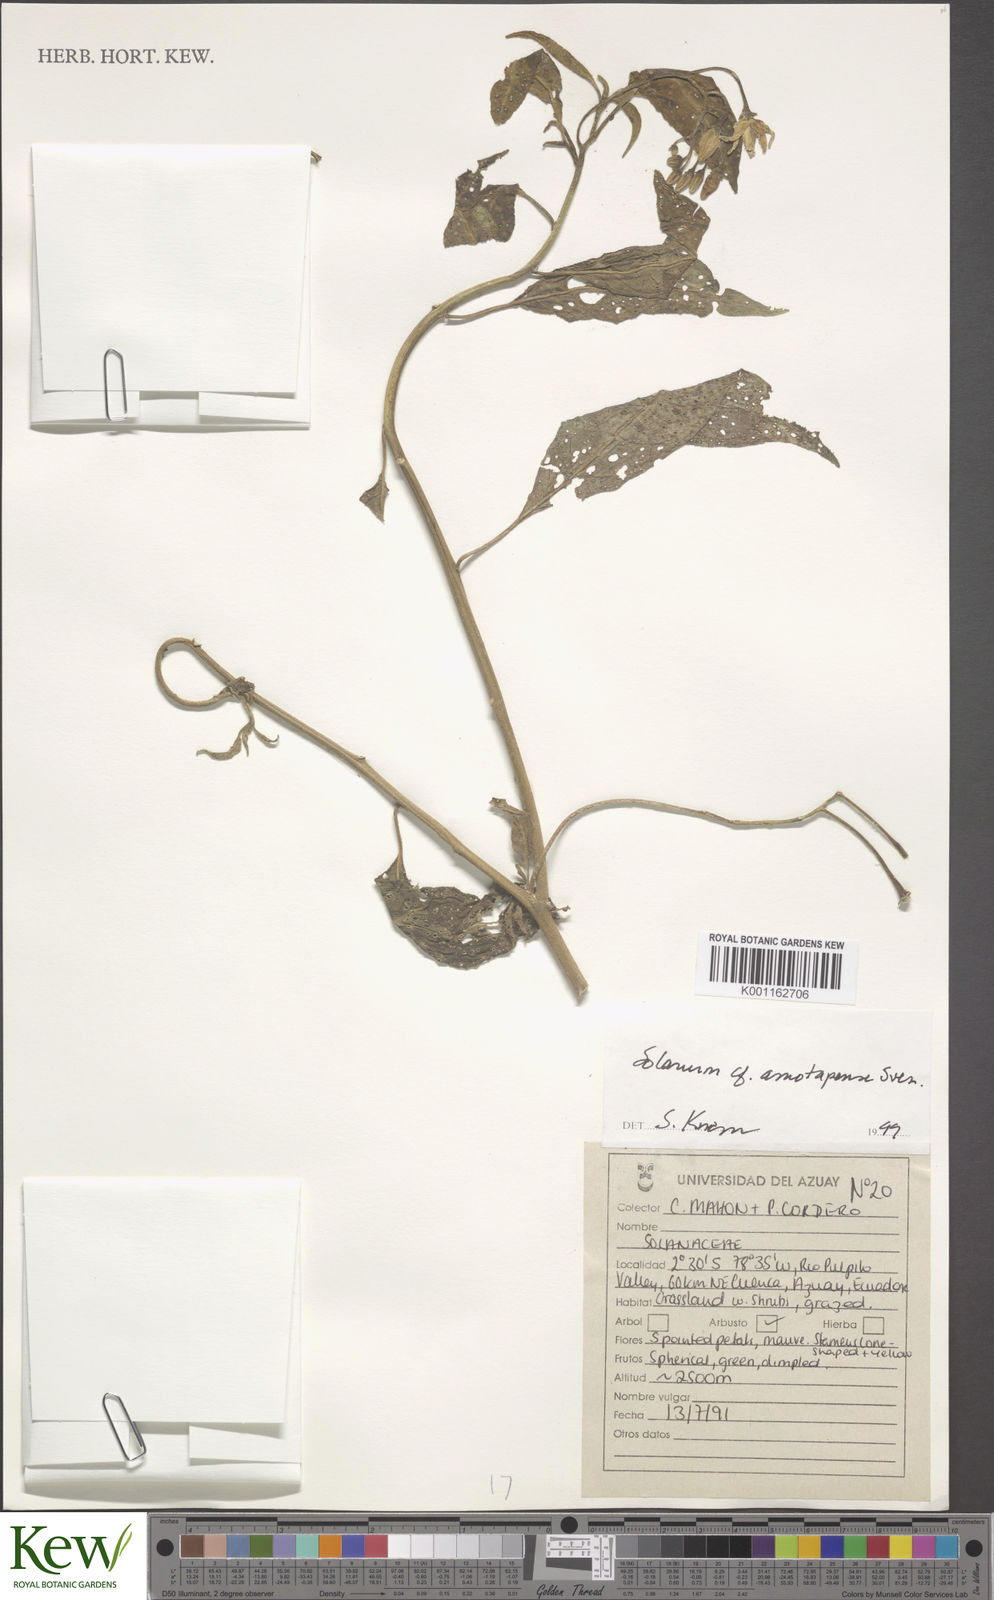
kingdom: Plantae
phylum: Tracheophyta
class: Magnoliopsida
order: Solanales
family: Solanaceae
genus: Solanum
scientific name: Solanum amotapense
